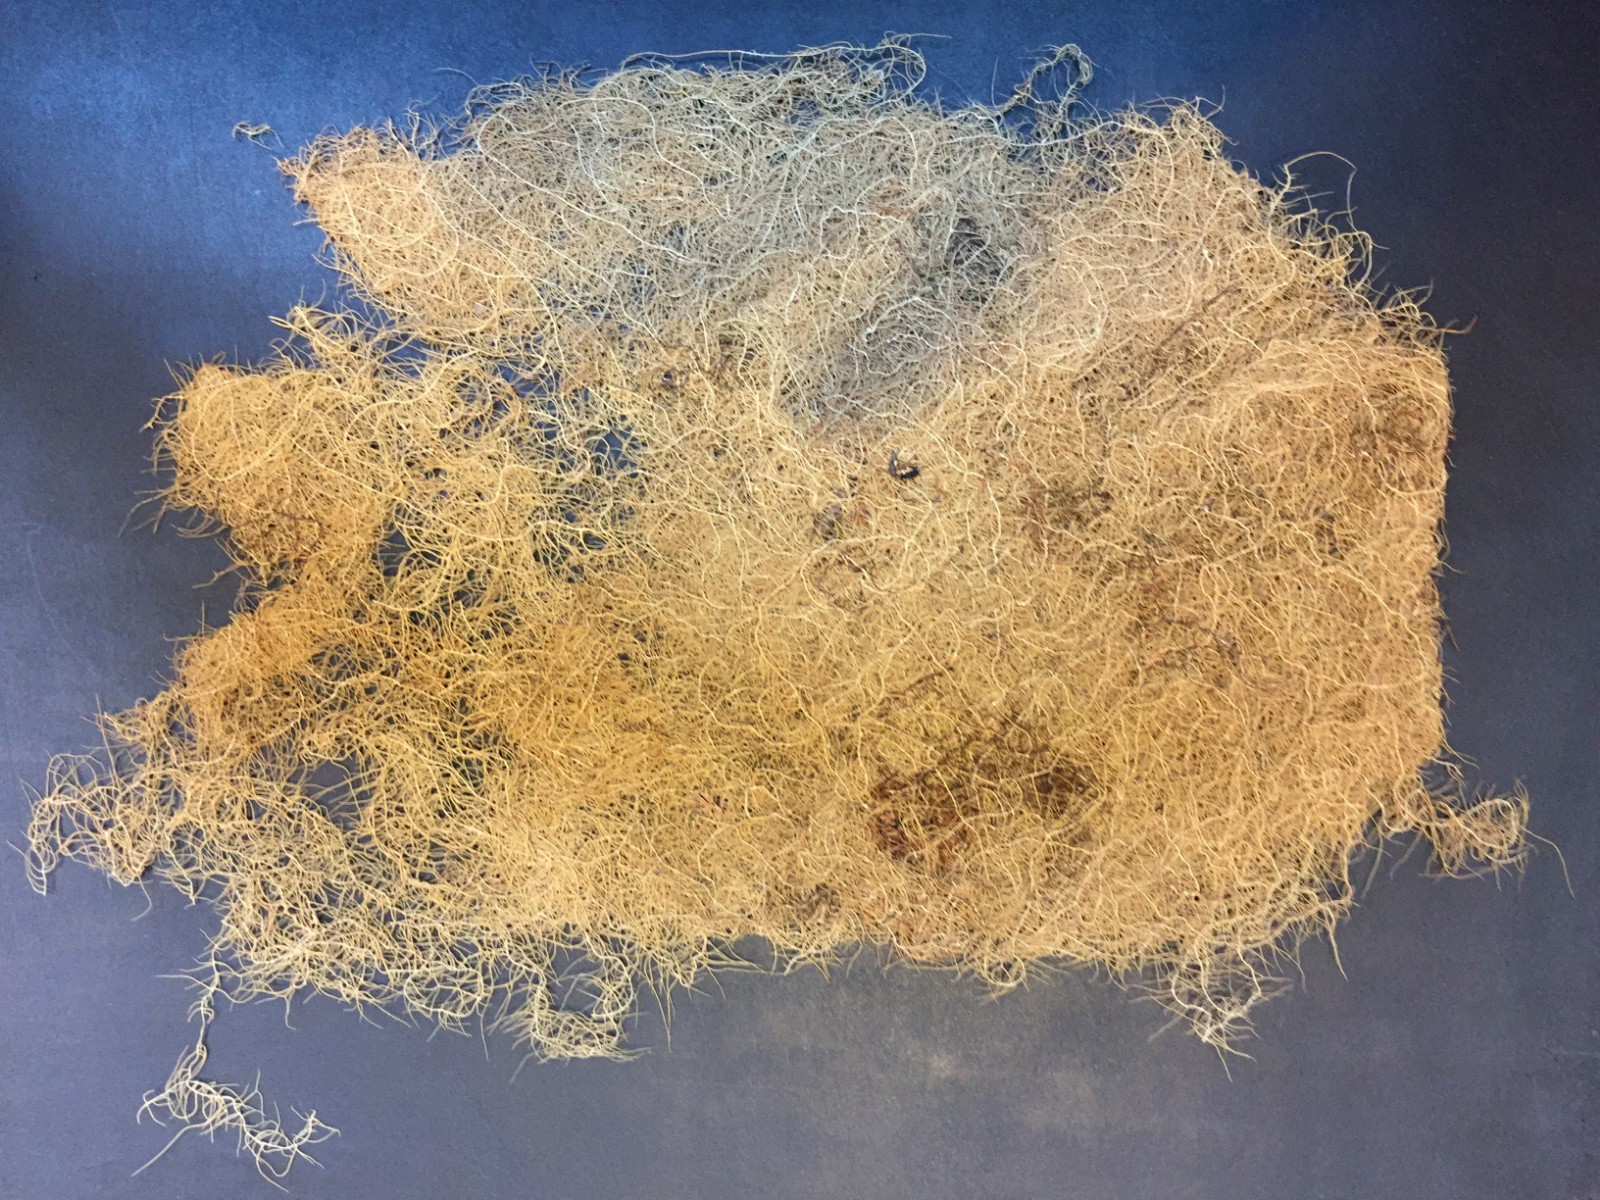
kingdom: Fungi
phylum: Ascomycota
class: Lecanoromycetes
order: Lecanorales
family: Parmeliaceae
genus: Dolichousnea
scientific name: Dolichousnea longissima
